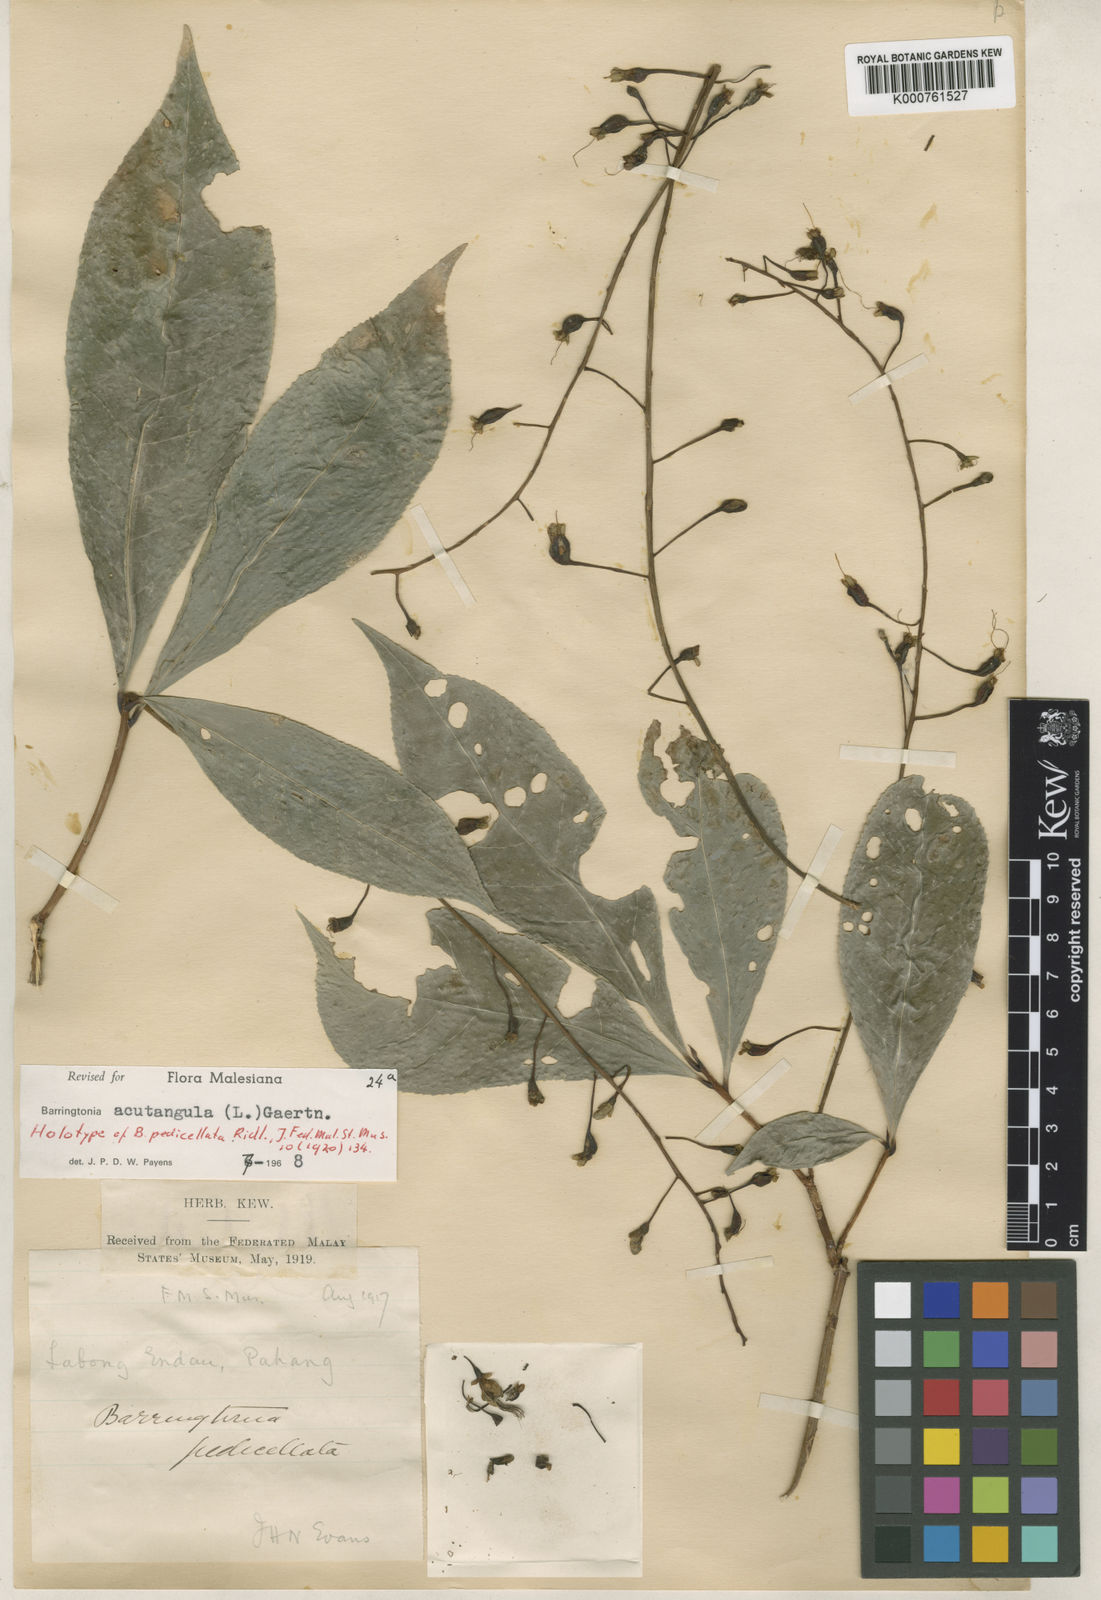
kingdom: Plantae
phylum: Tracheophyta
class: Magnoliopsida
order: Ericales
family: Lecythidaceae
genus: Barringtonia
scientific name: Barringtonia acutangula
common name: Freshwater mangrove
